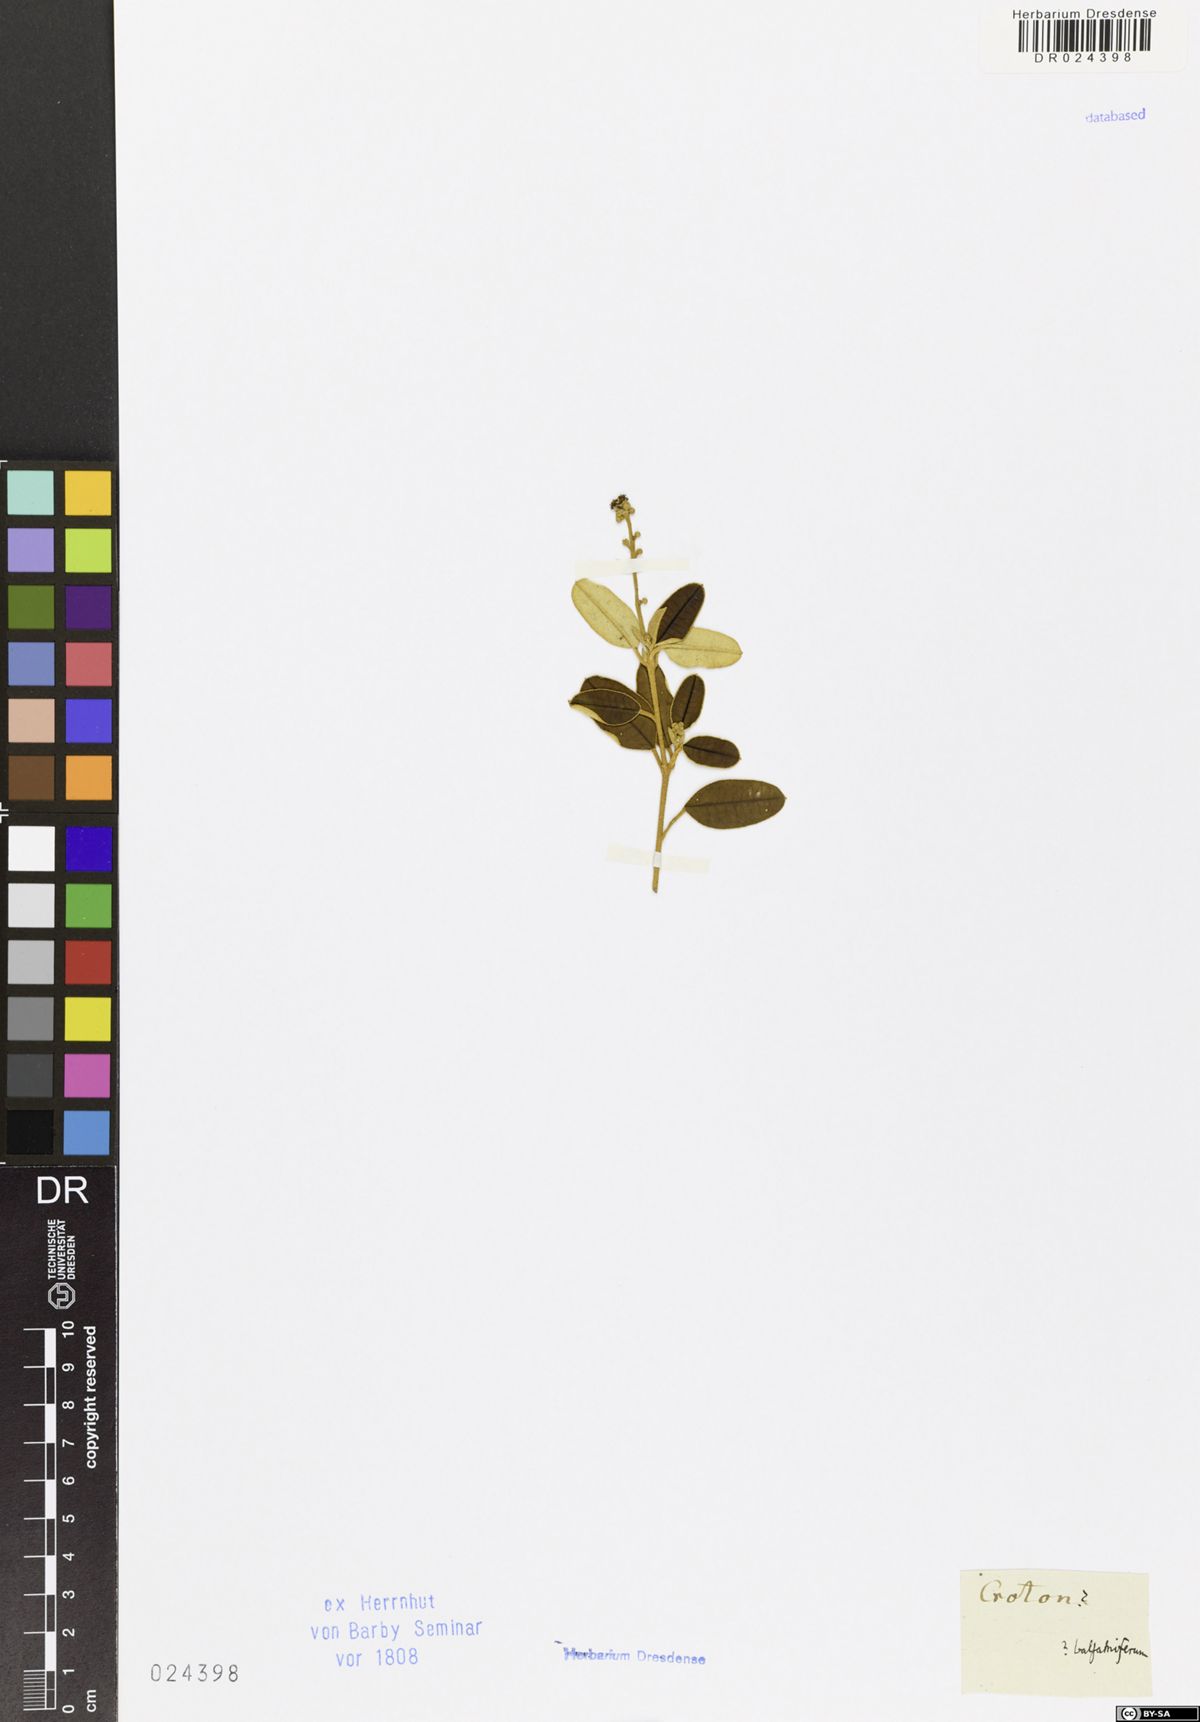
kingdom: Plantae
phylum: Tracheophyta
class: Magnoliopsida
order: Malpighiales
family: Euphorbiaceae
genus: Croton
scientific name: Croton flavens
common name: Yellow balsam
